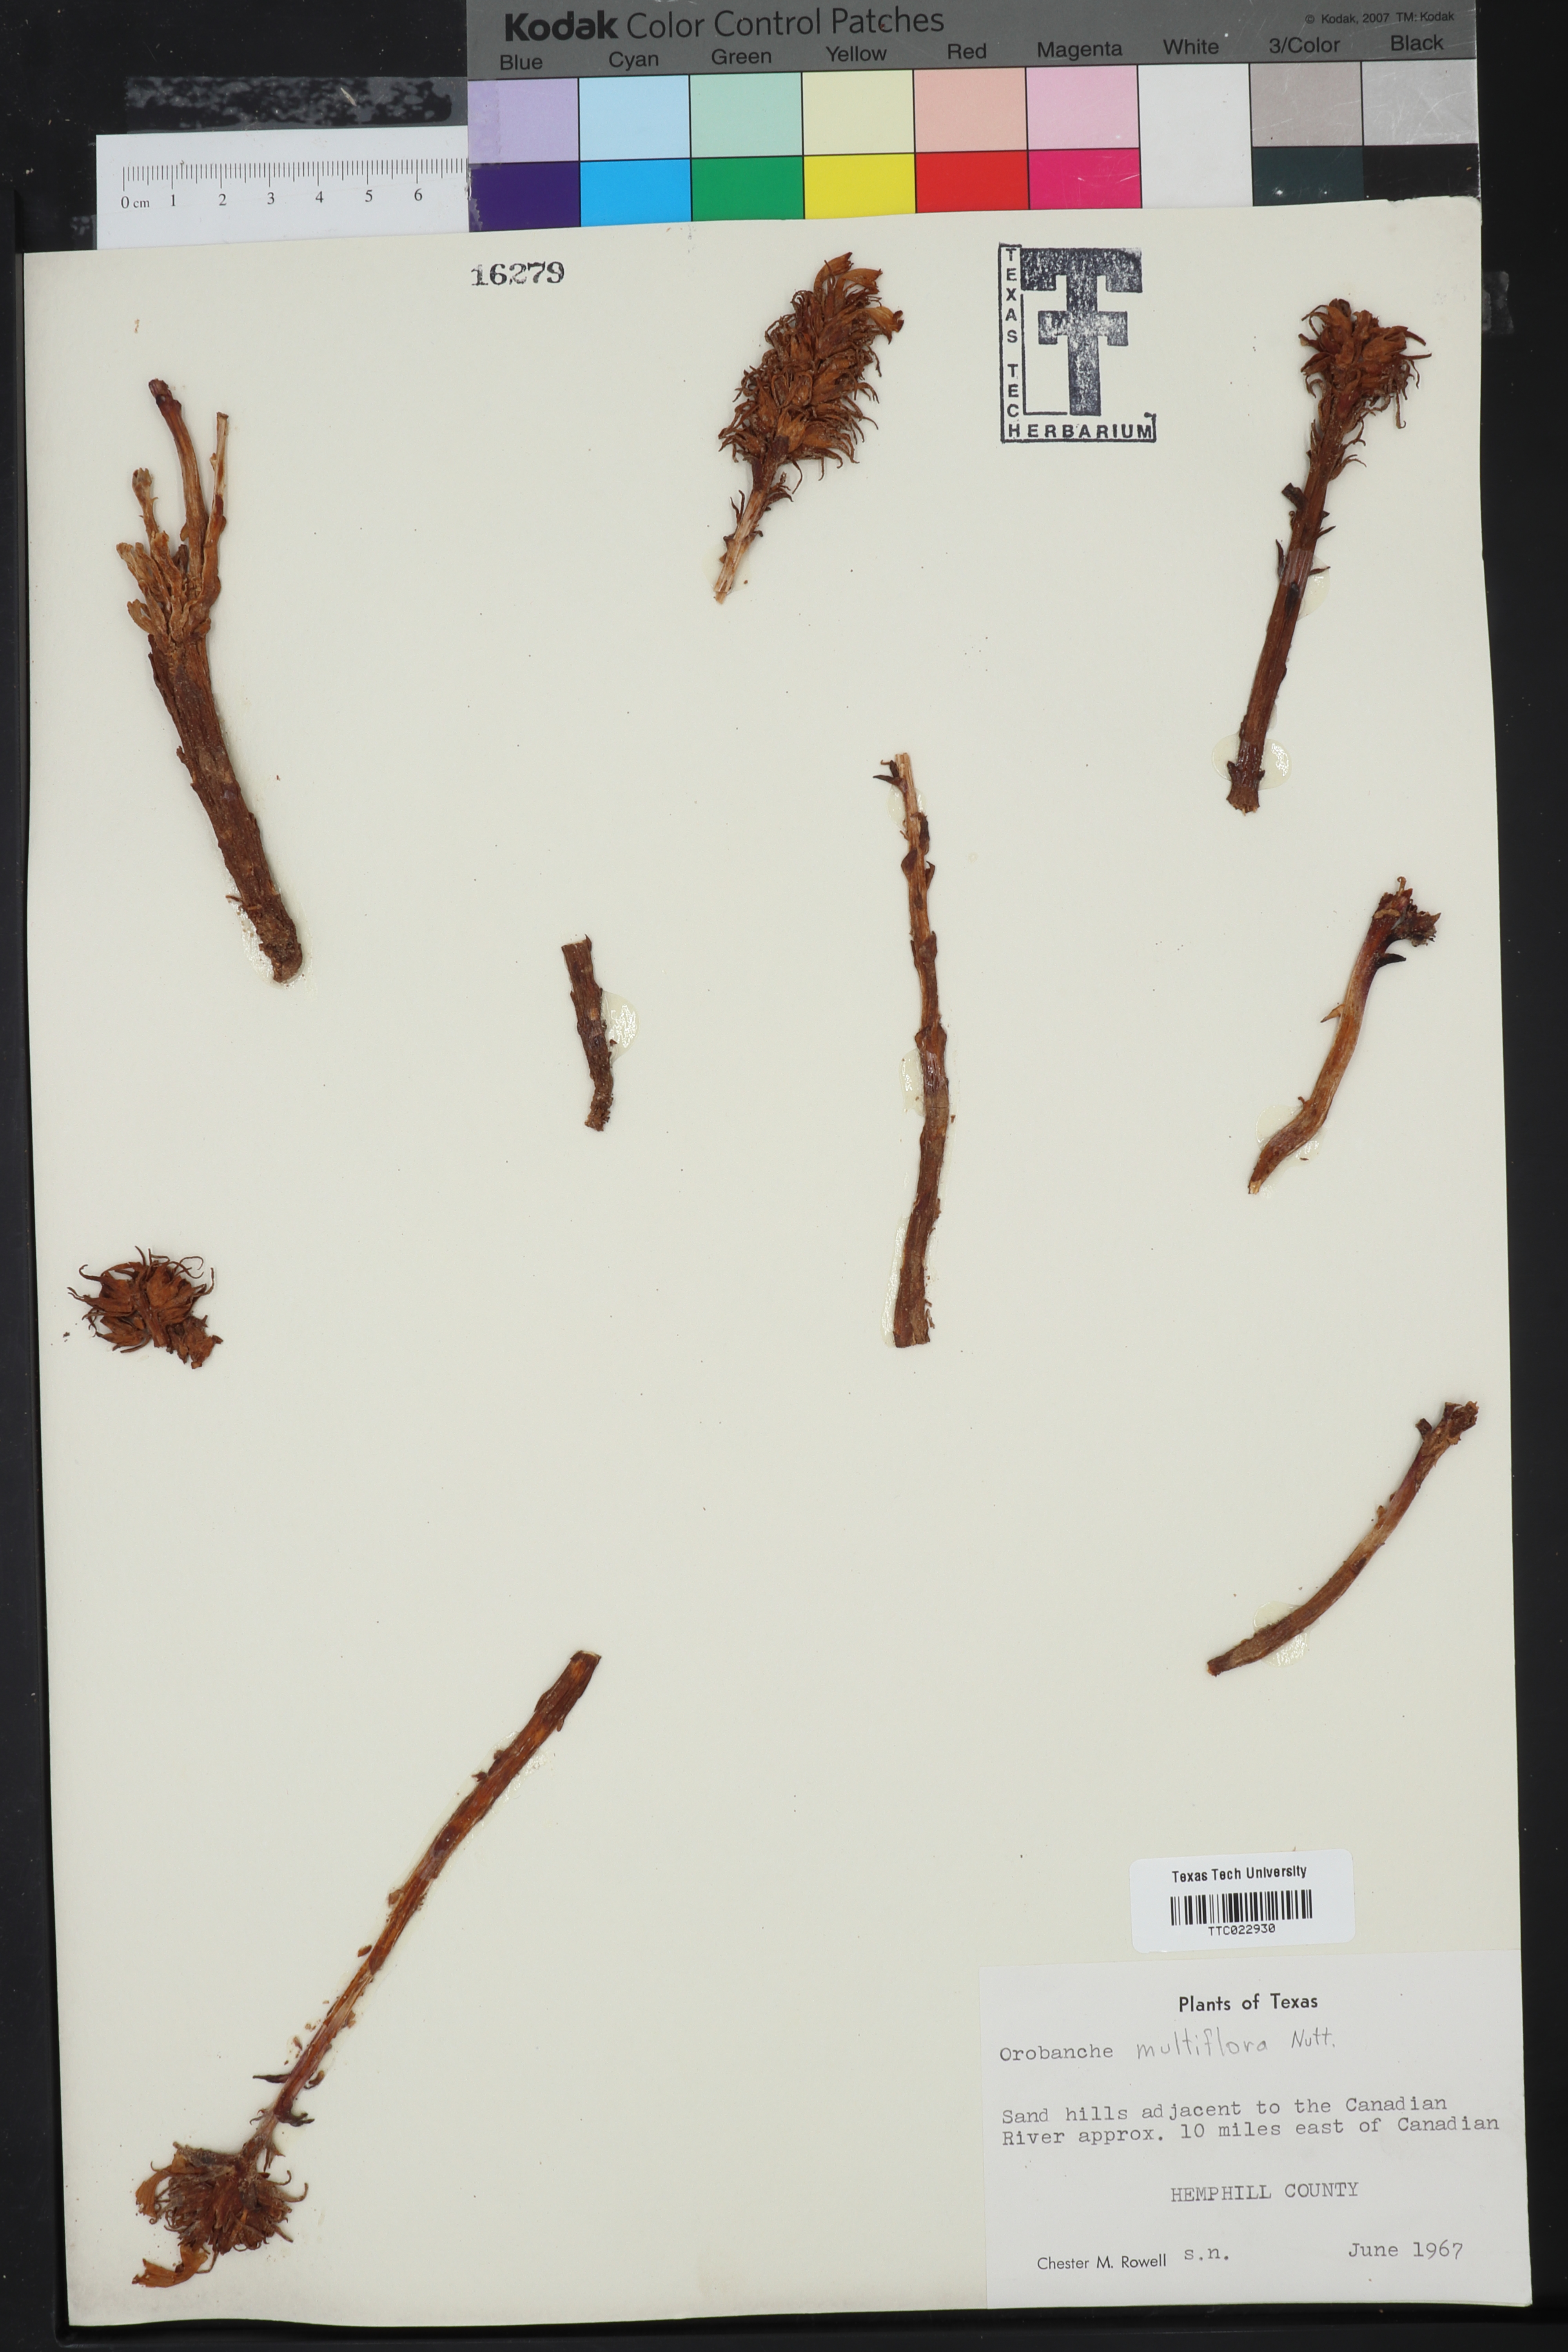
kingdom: Plantae
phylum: Tracheophyta
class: Magnoliopsida
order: Lamiales
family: Orobanchaceae
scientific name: Orobanchaceae
